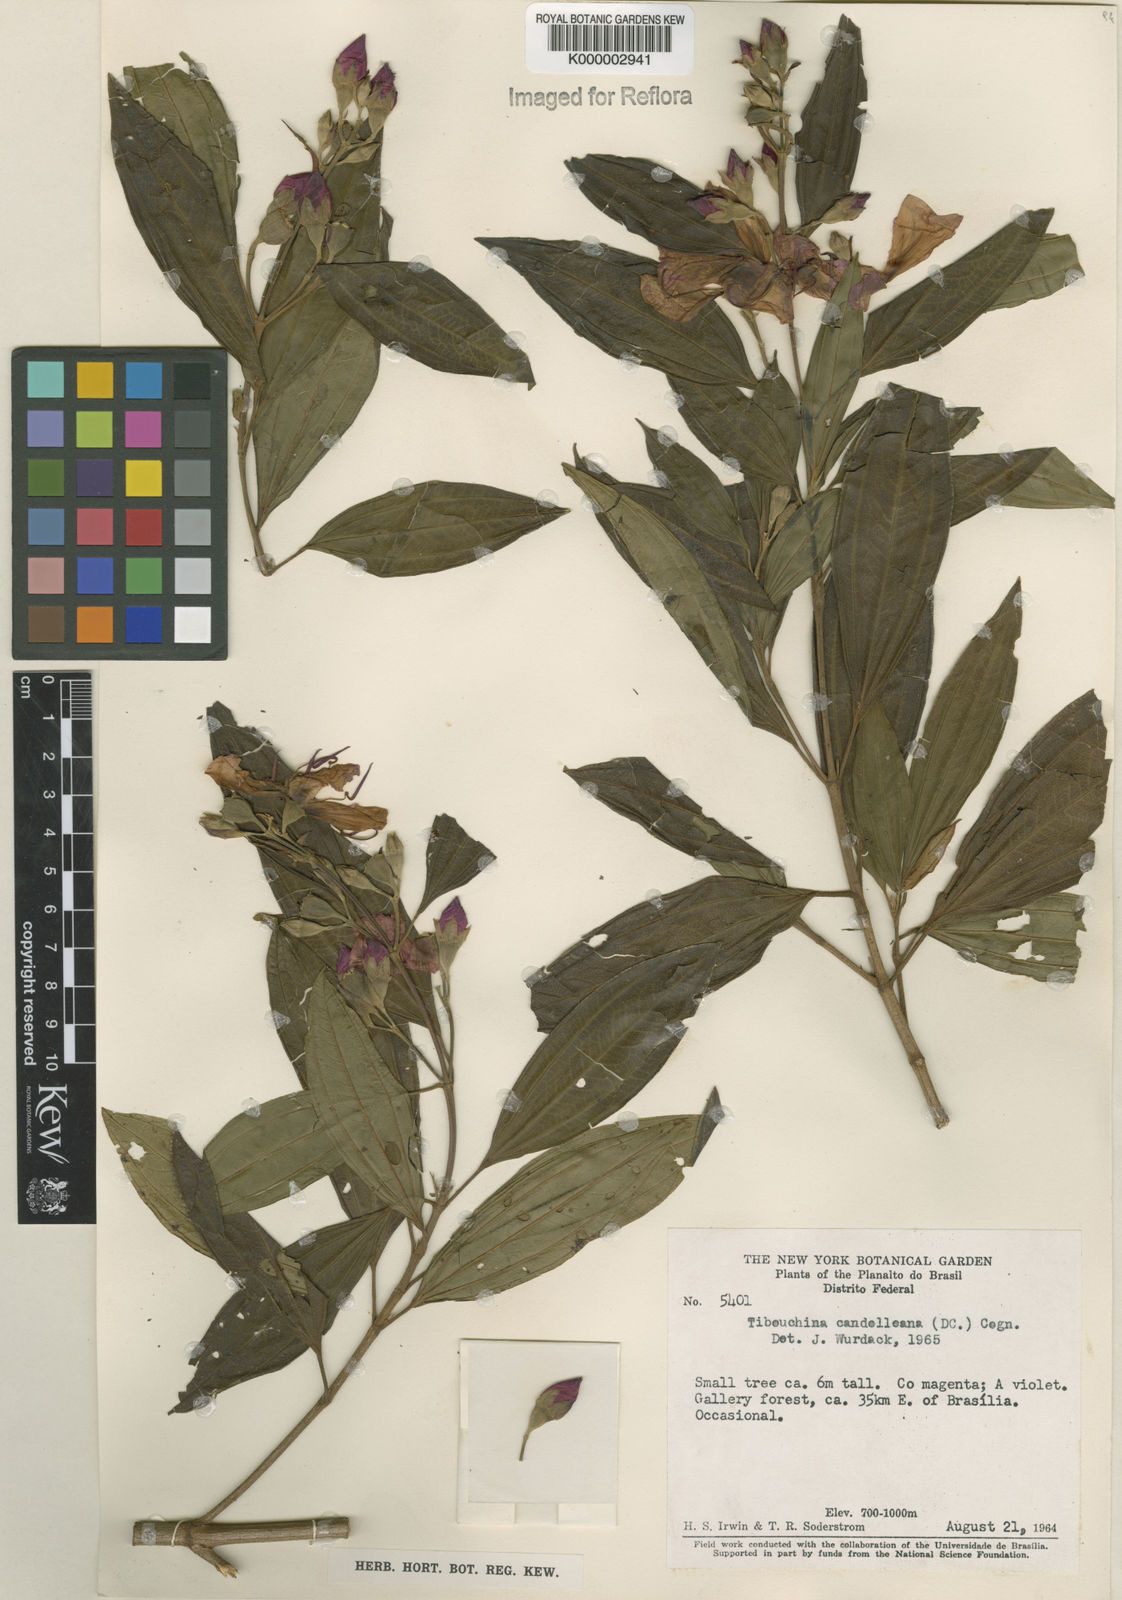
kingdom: Plantae
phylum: Tracheophyta
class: Magnoliopsida
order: Myrtales
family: Melastomataceae
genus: Pleroma
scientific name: Pleroma candolleanum
